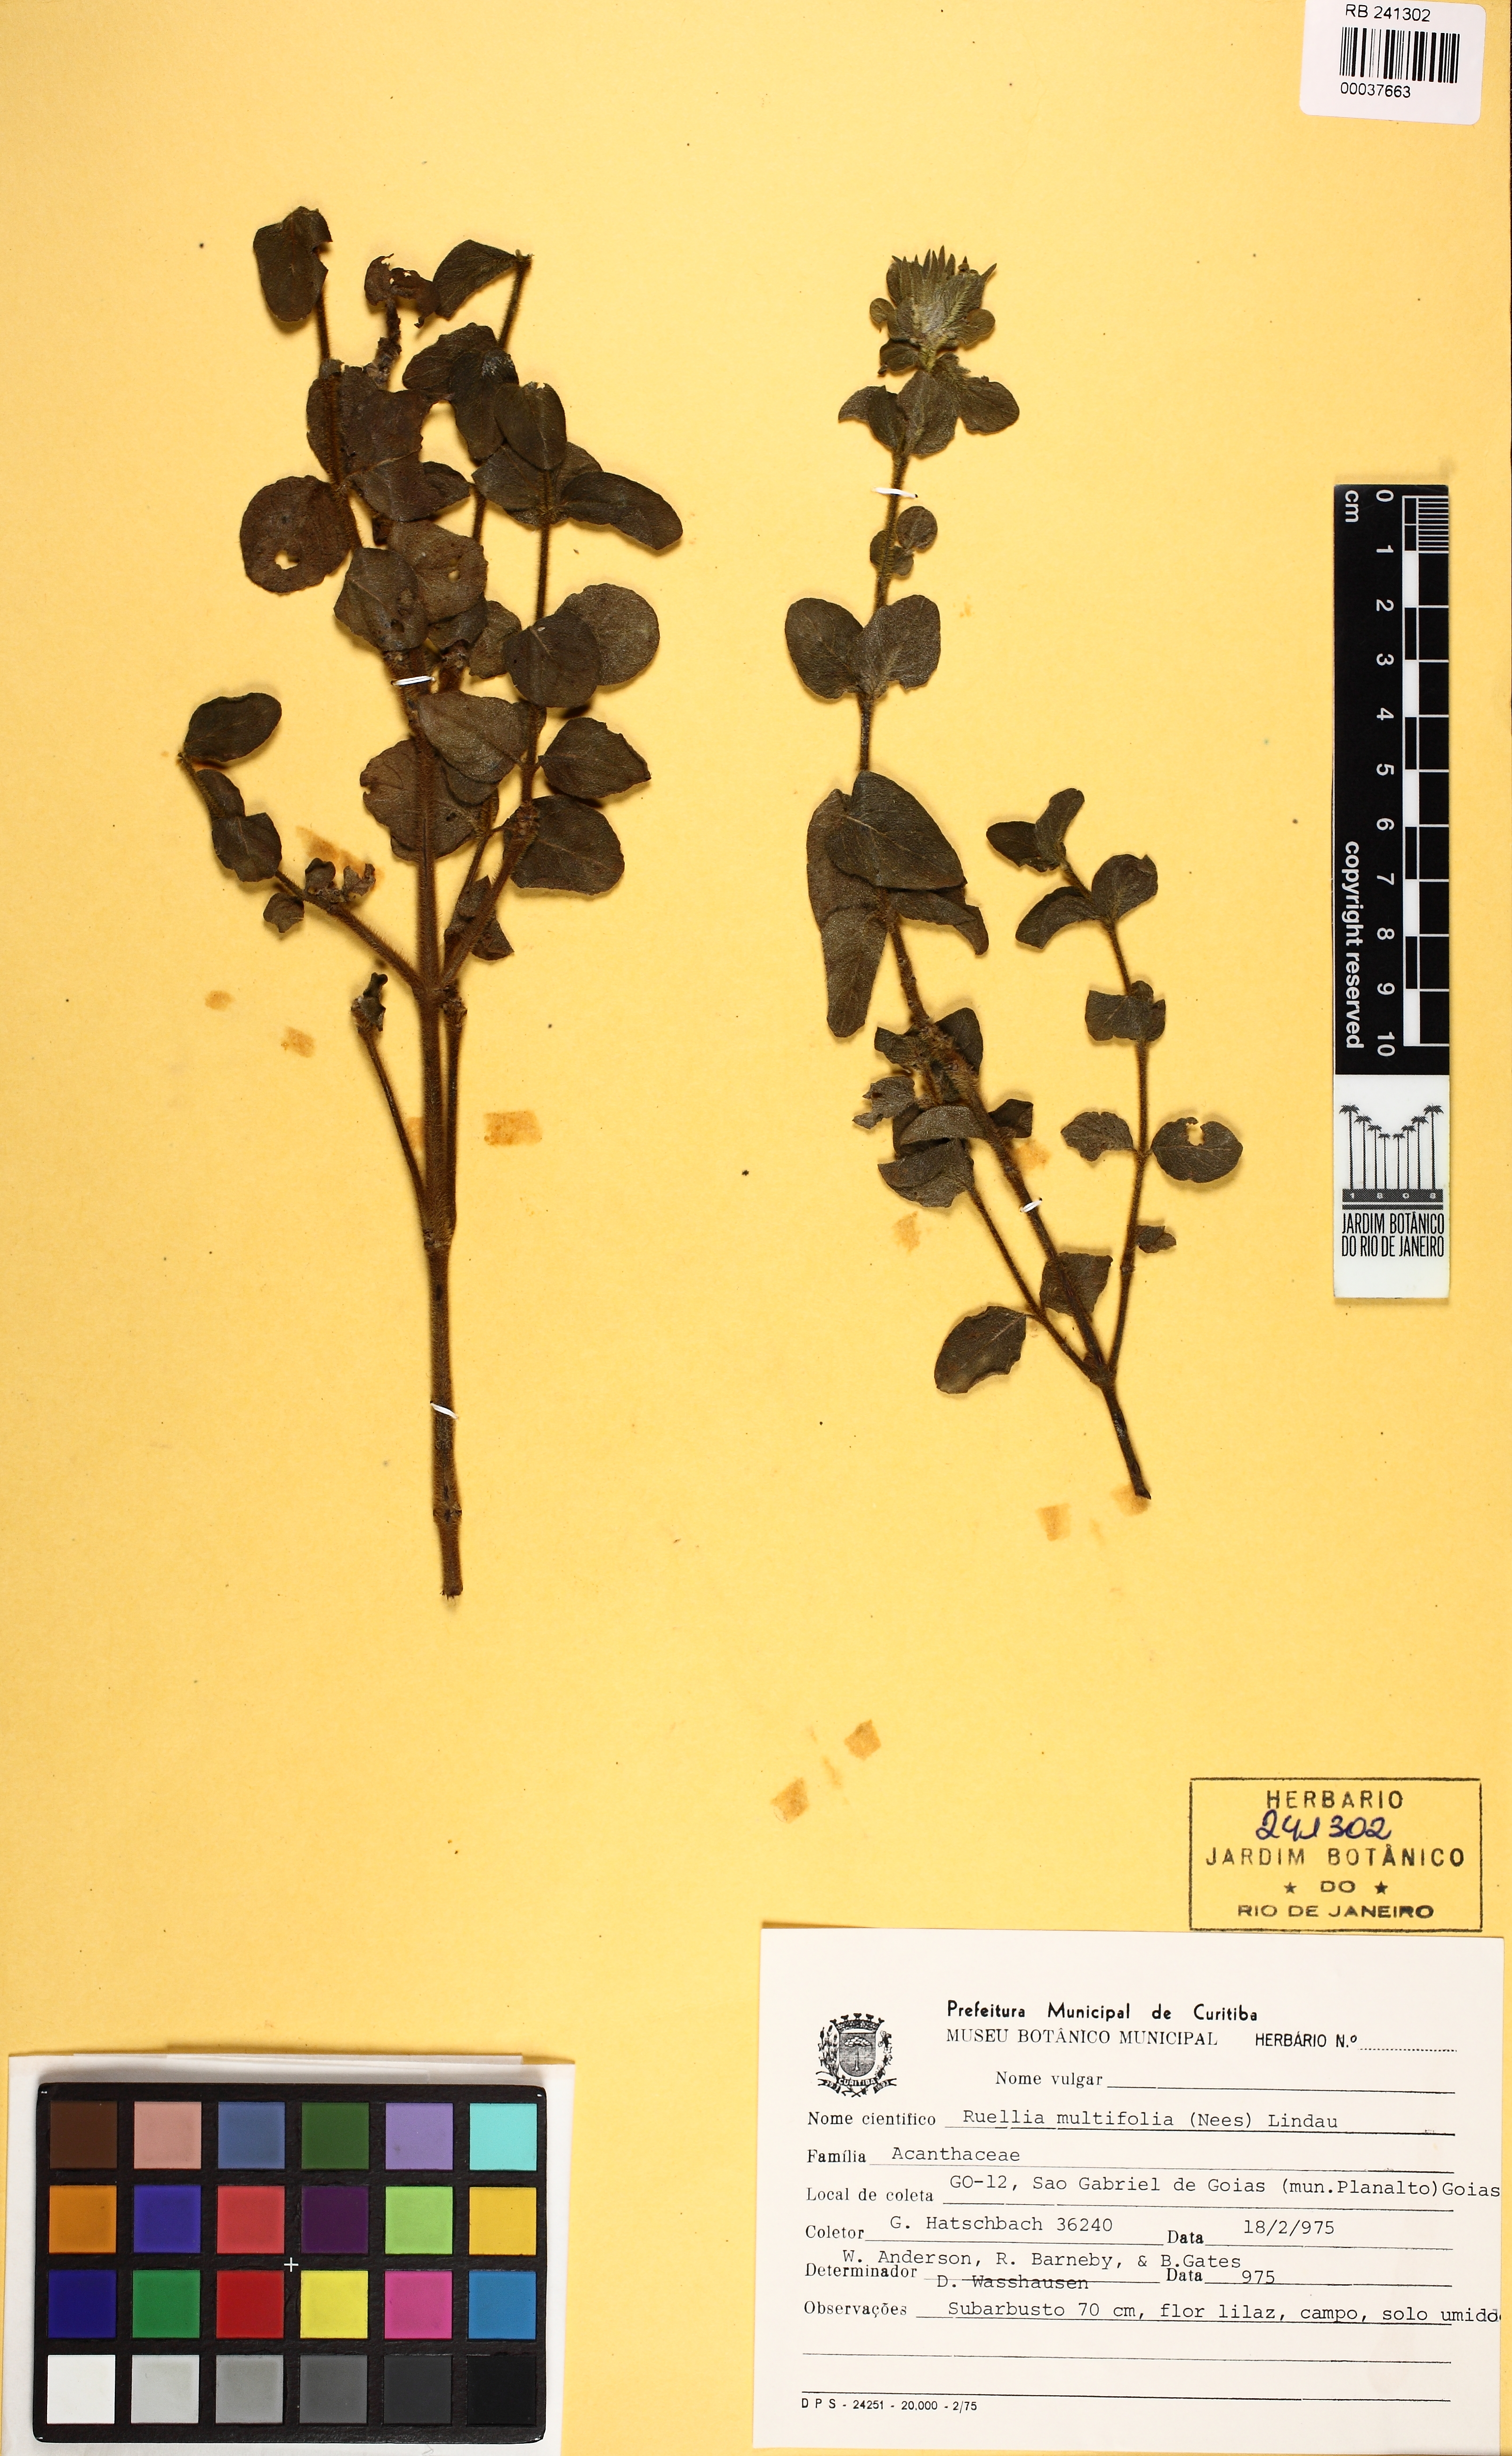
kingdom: Plantae
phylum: Tracheophyta
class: Magnoliopsida
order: Lamiales
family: Acanthaceae
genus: Ruellia
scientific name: Ruellia helianthema
